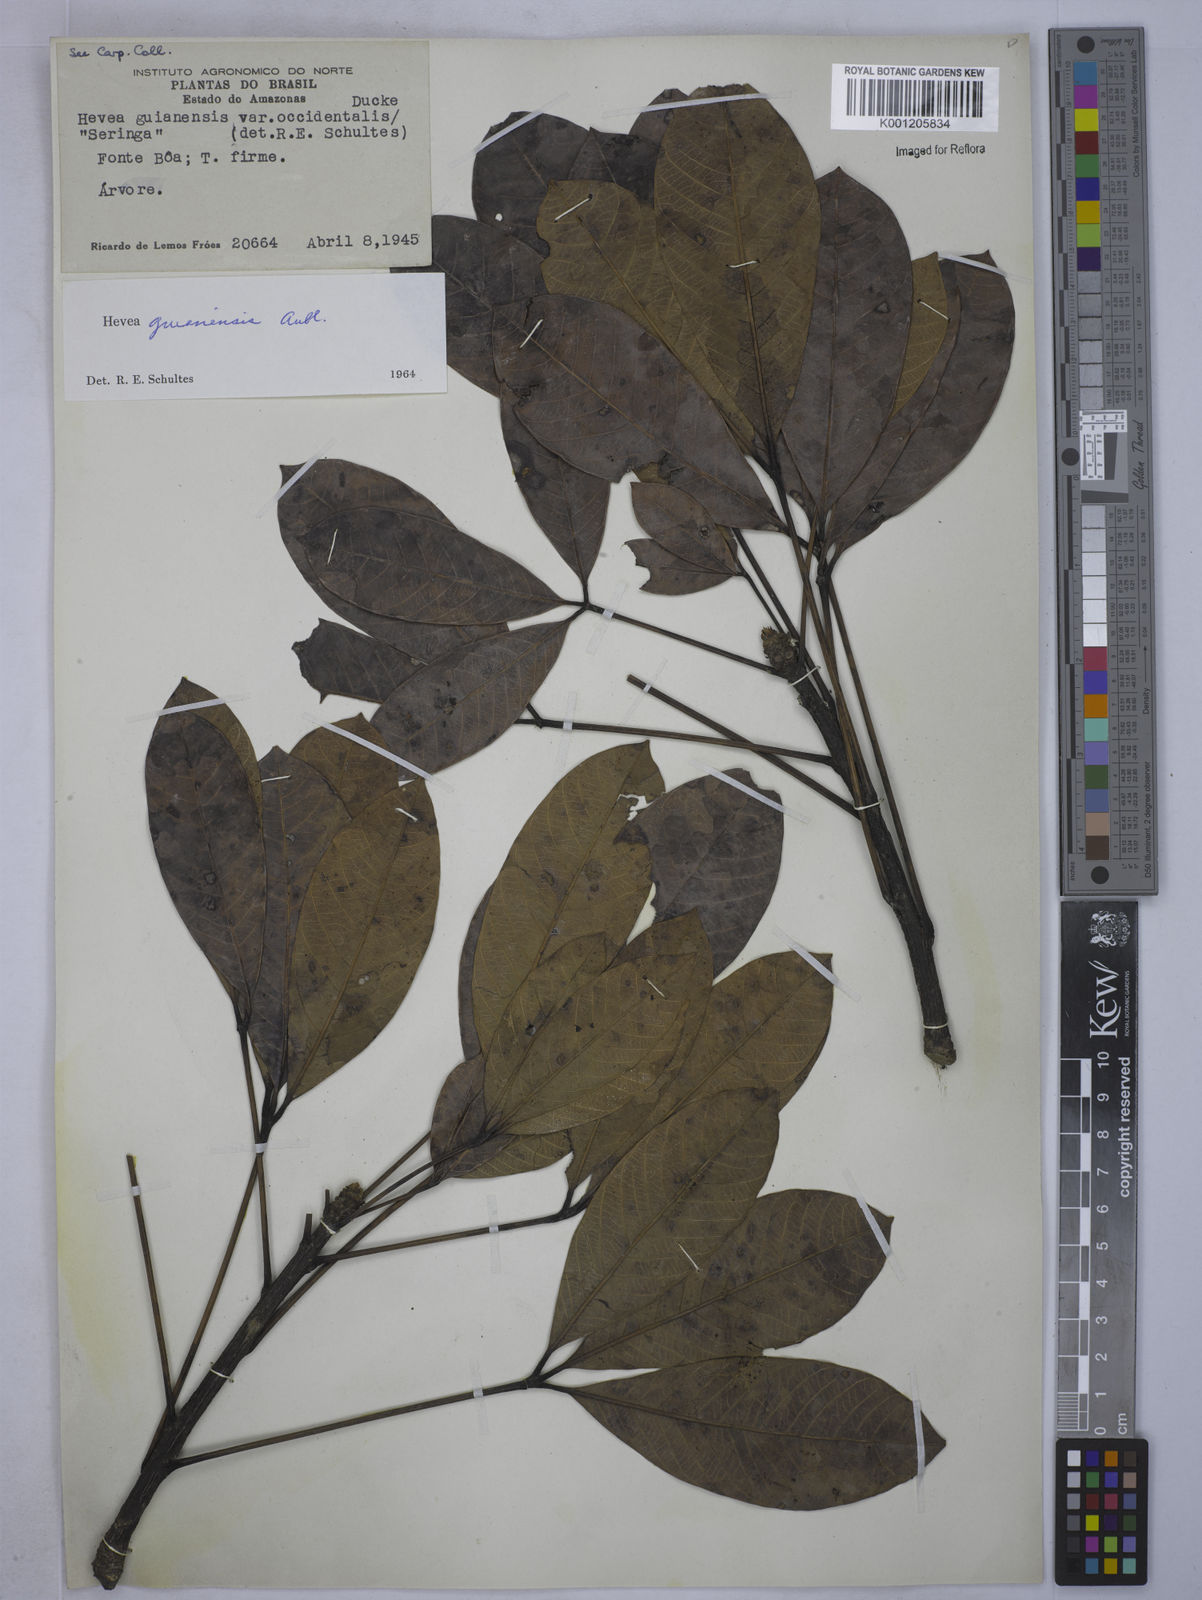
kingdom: Plantae
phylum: Tracheophyta
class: Magnoliopsida
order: Malpighiales
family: Euphorbiaceae
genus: Hevea
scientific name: Hevea guianensis
